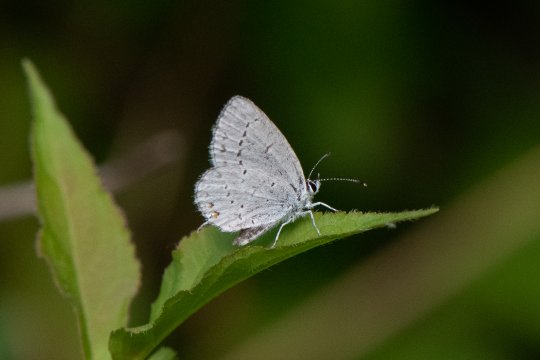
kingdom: Animalia
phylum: Arthropoda
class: Insecta
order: Lepidoptera
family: Lycaenidae
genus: Elkalyce
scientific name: Elkalyce amyntula
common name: Western Tailed-Blue
